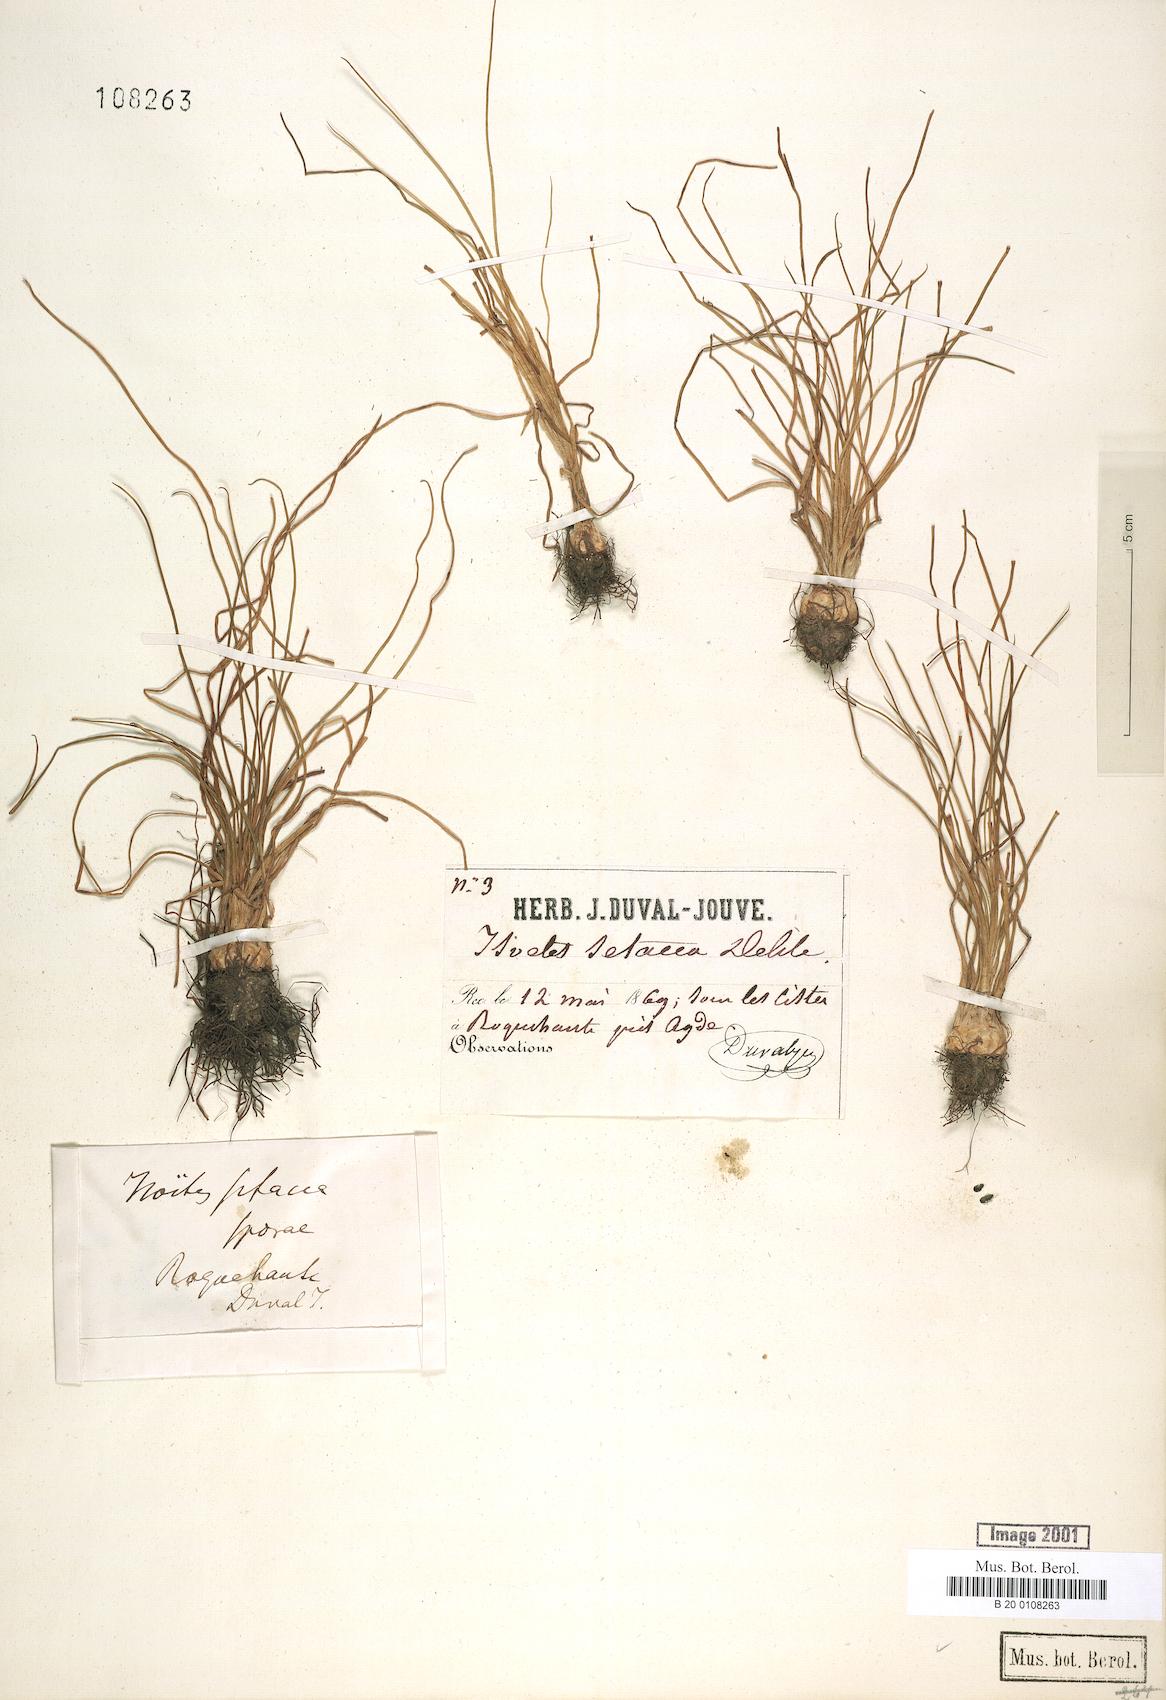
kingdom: Plantae
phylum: Tracheophyta
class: Lycopodiopsida
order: Isoetales
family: Isoetaceae
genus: Isoetes
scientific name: Isoetes lacustris
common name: Common quillwort
